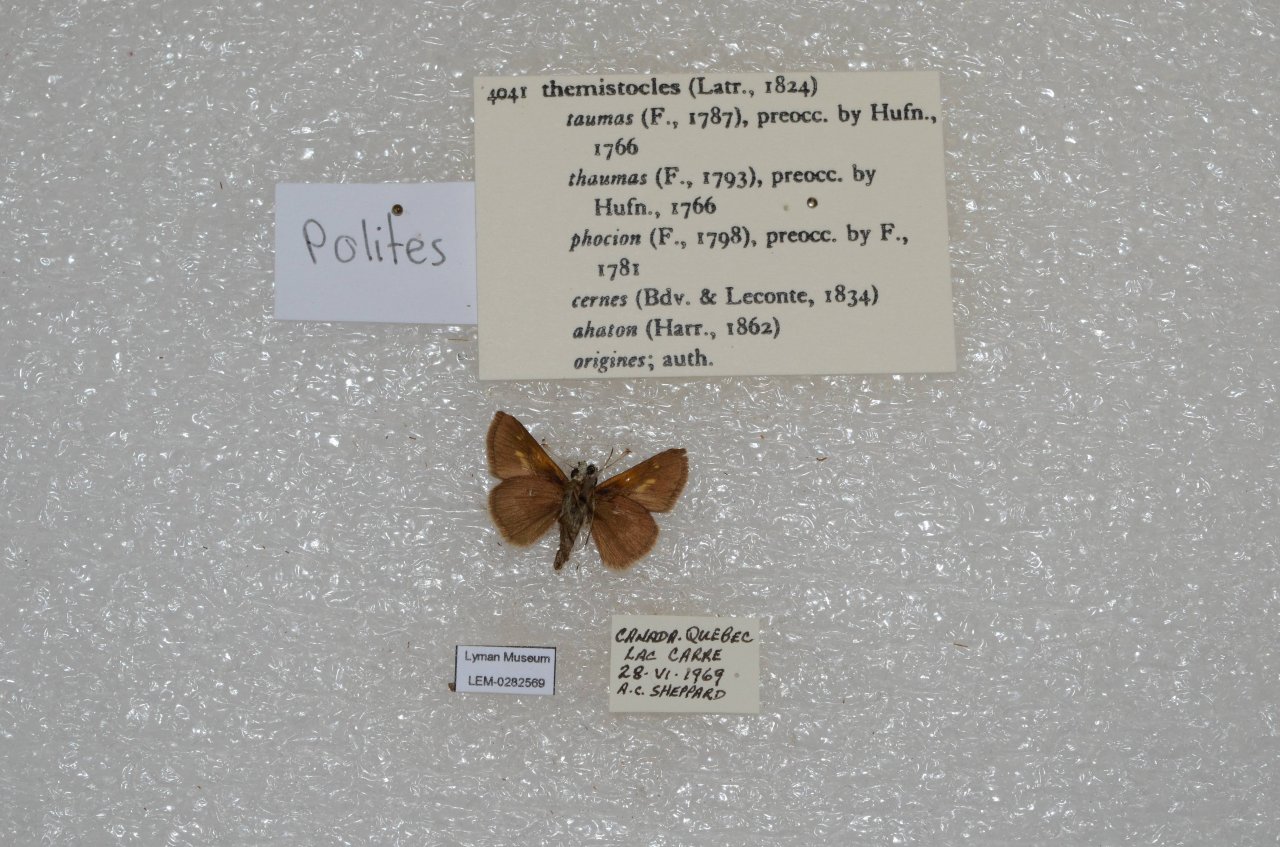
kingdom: Animalia
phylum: Arthropoda
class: Insecta
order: Lepidoptera
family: Hesperiidae
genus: Polites
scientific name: Polites themistocles
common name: Tawny-edged Skipper
